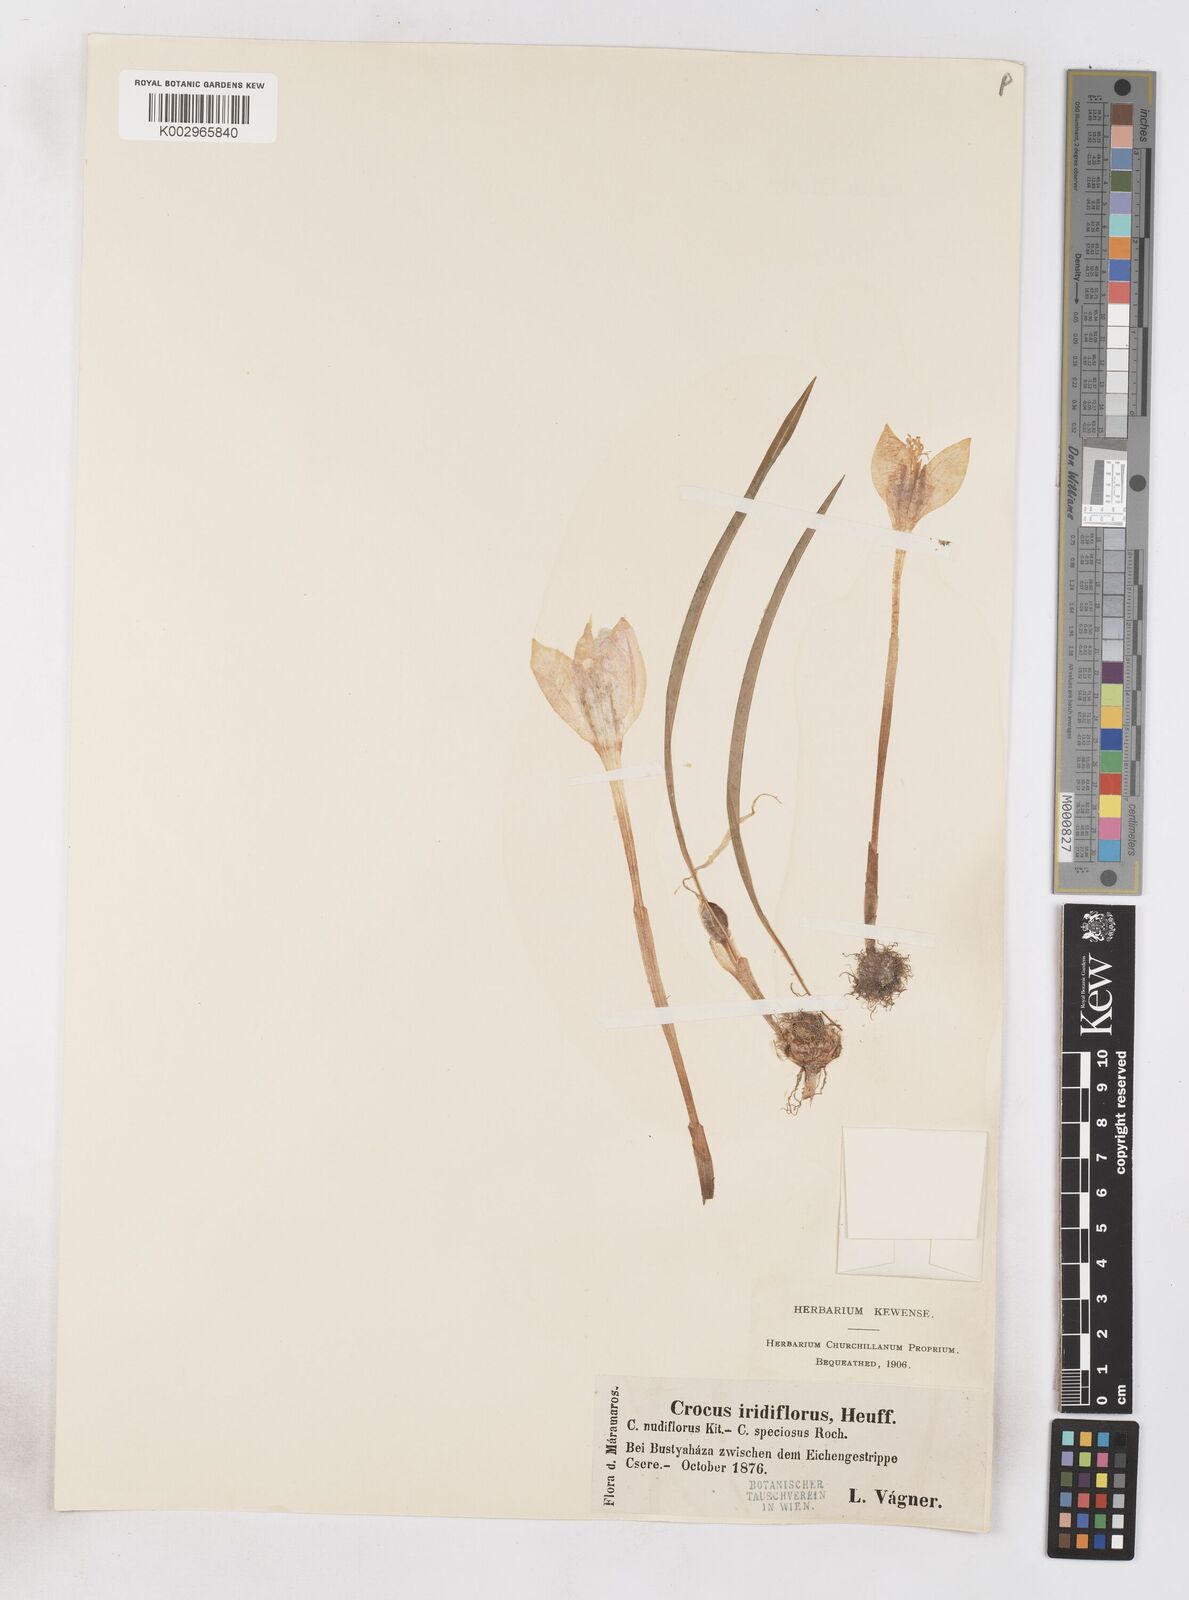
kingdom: Plantae
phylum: Tracheophyta
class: Liliopsida
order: Asparagales
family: Iridaceae
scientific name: Iridaceae
